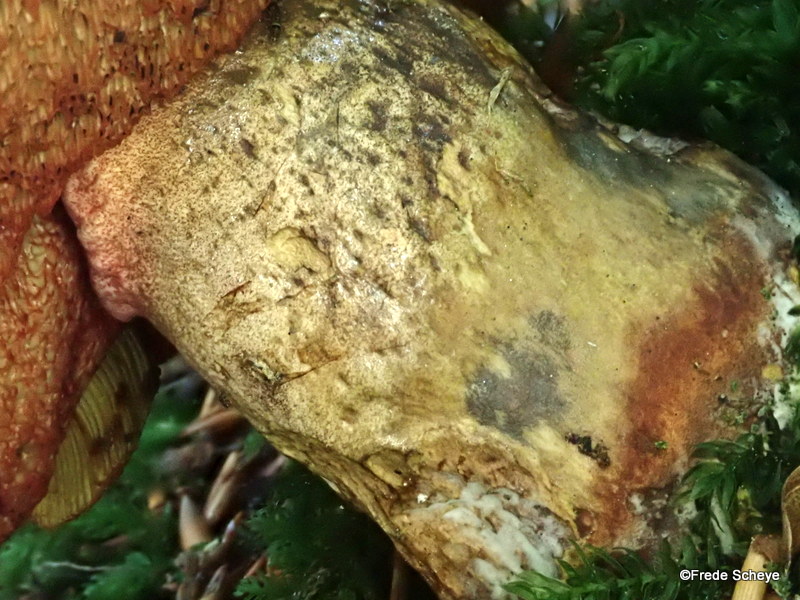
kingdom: Fungi
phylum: Basidiomycota
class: Agaricomycetes
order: Boletales
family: Boletaceae
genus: Neoboletus
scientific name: Neoboletus erythropus
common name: punktstokket indigorørhat
